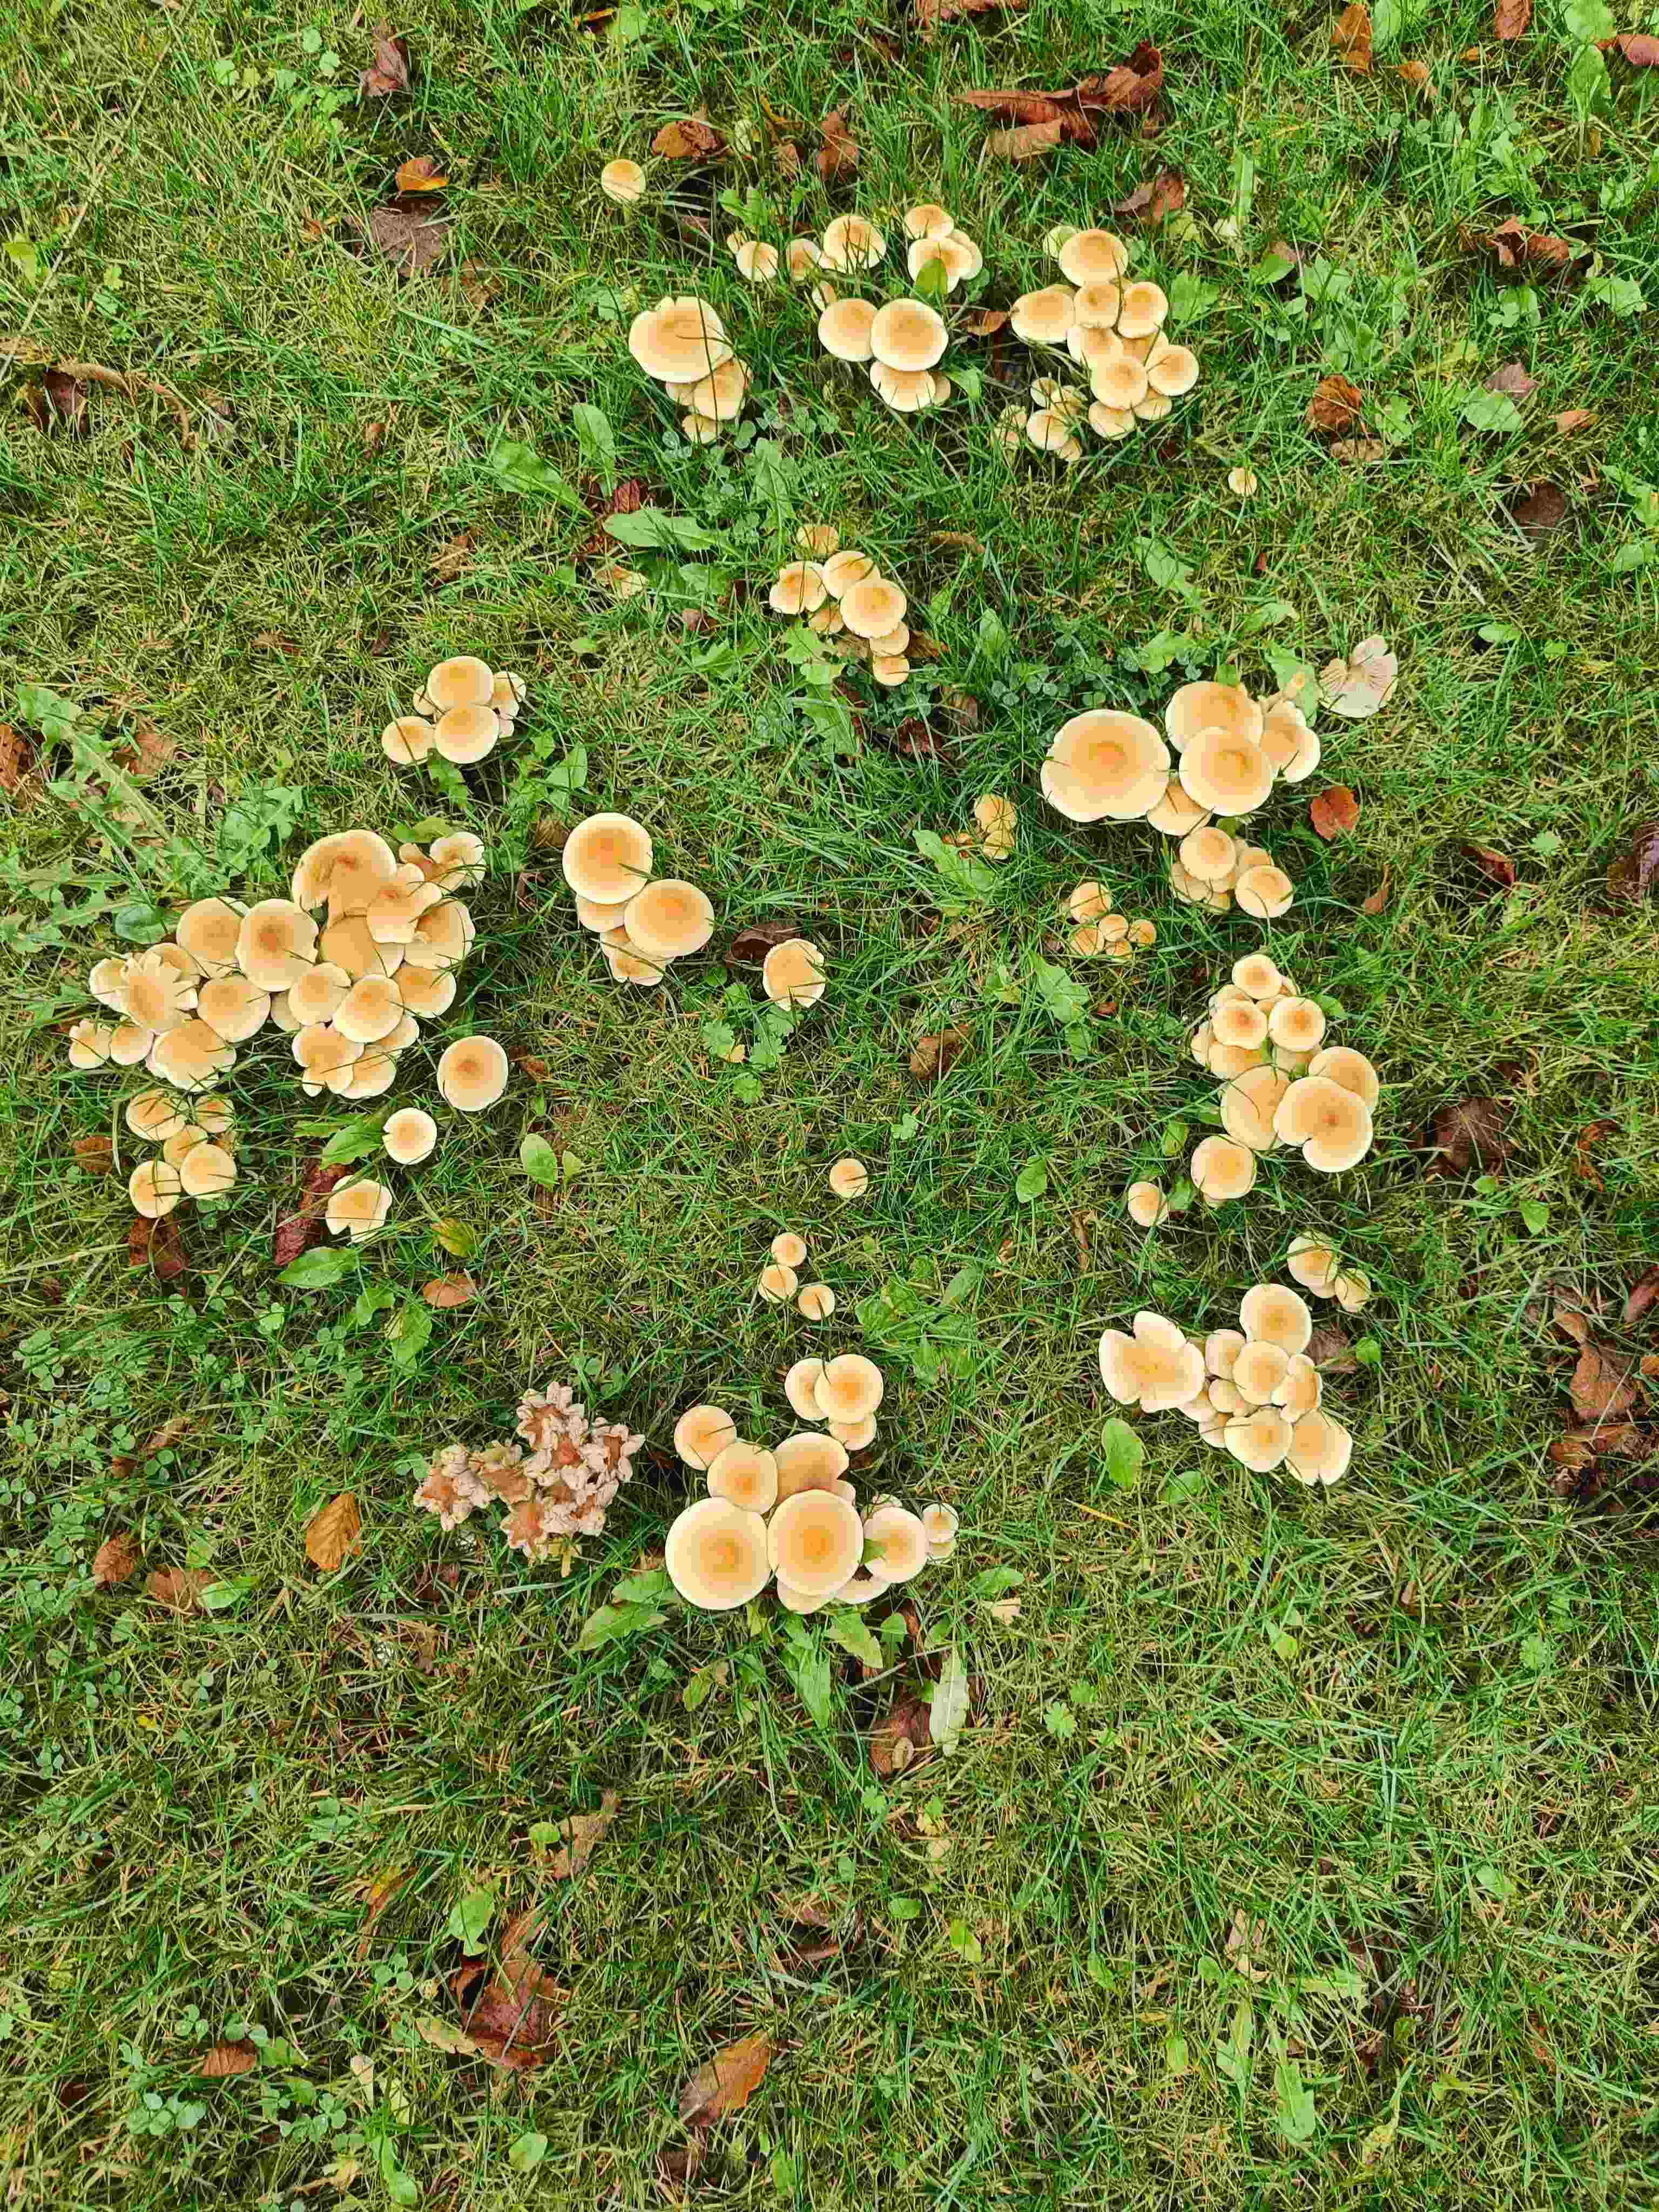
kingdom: Fungi
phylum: Basidiomycota
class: Agaricomycetes
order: Agaricales
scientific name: Agaricales
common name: champignonordenen
